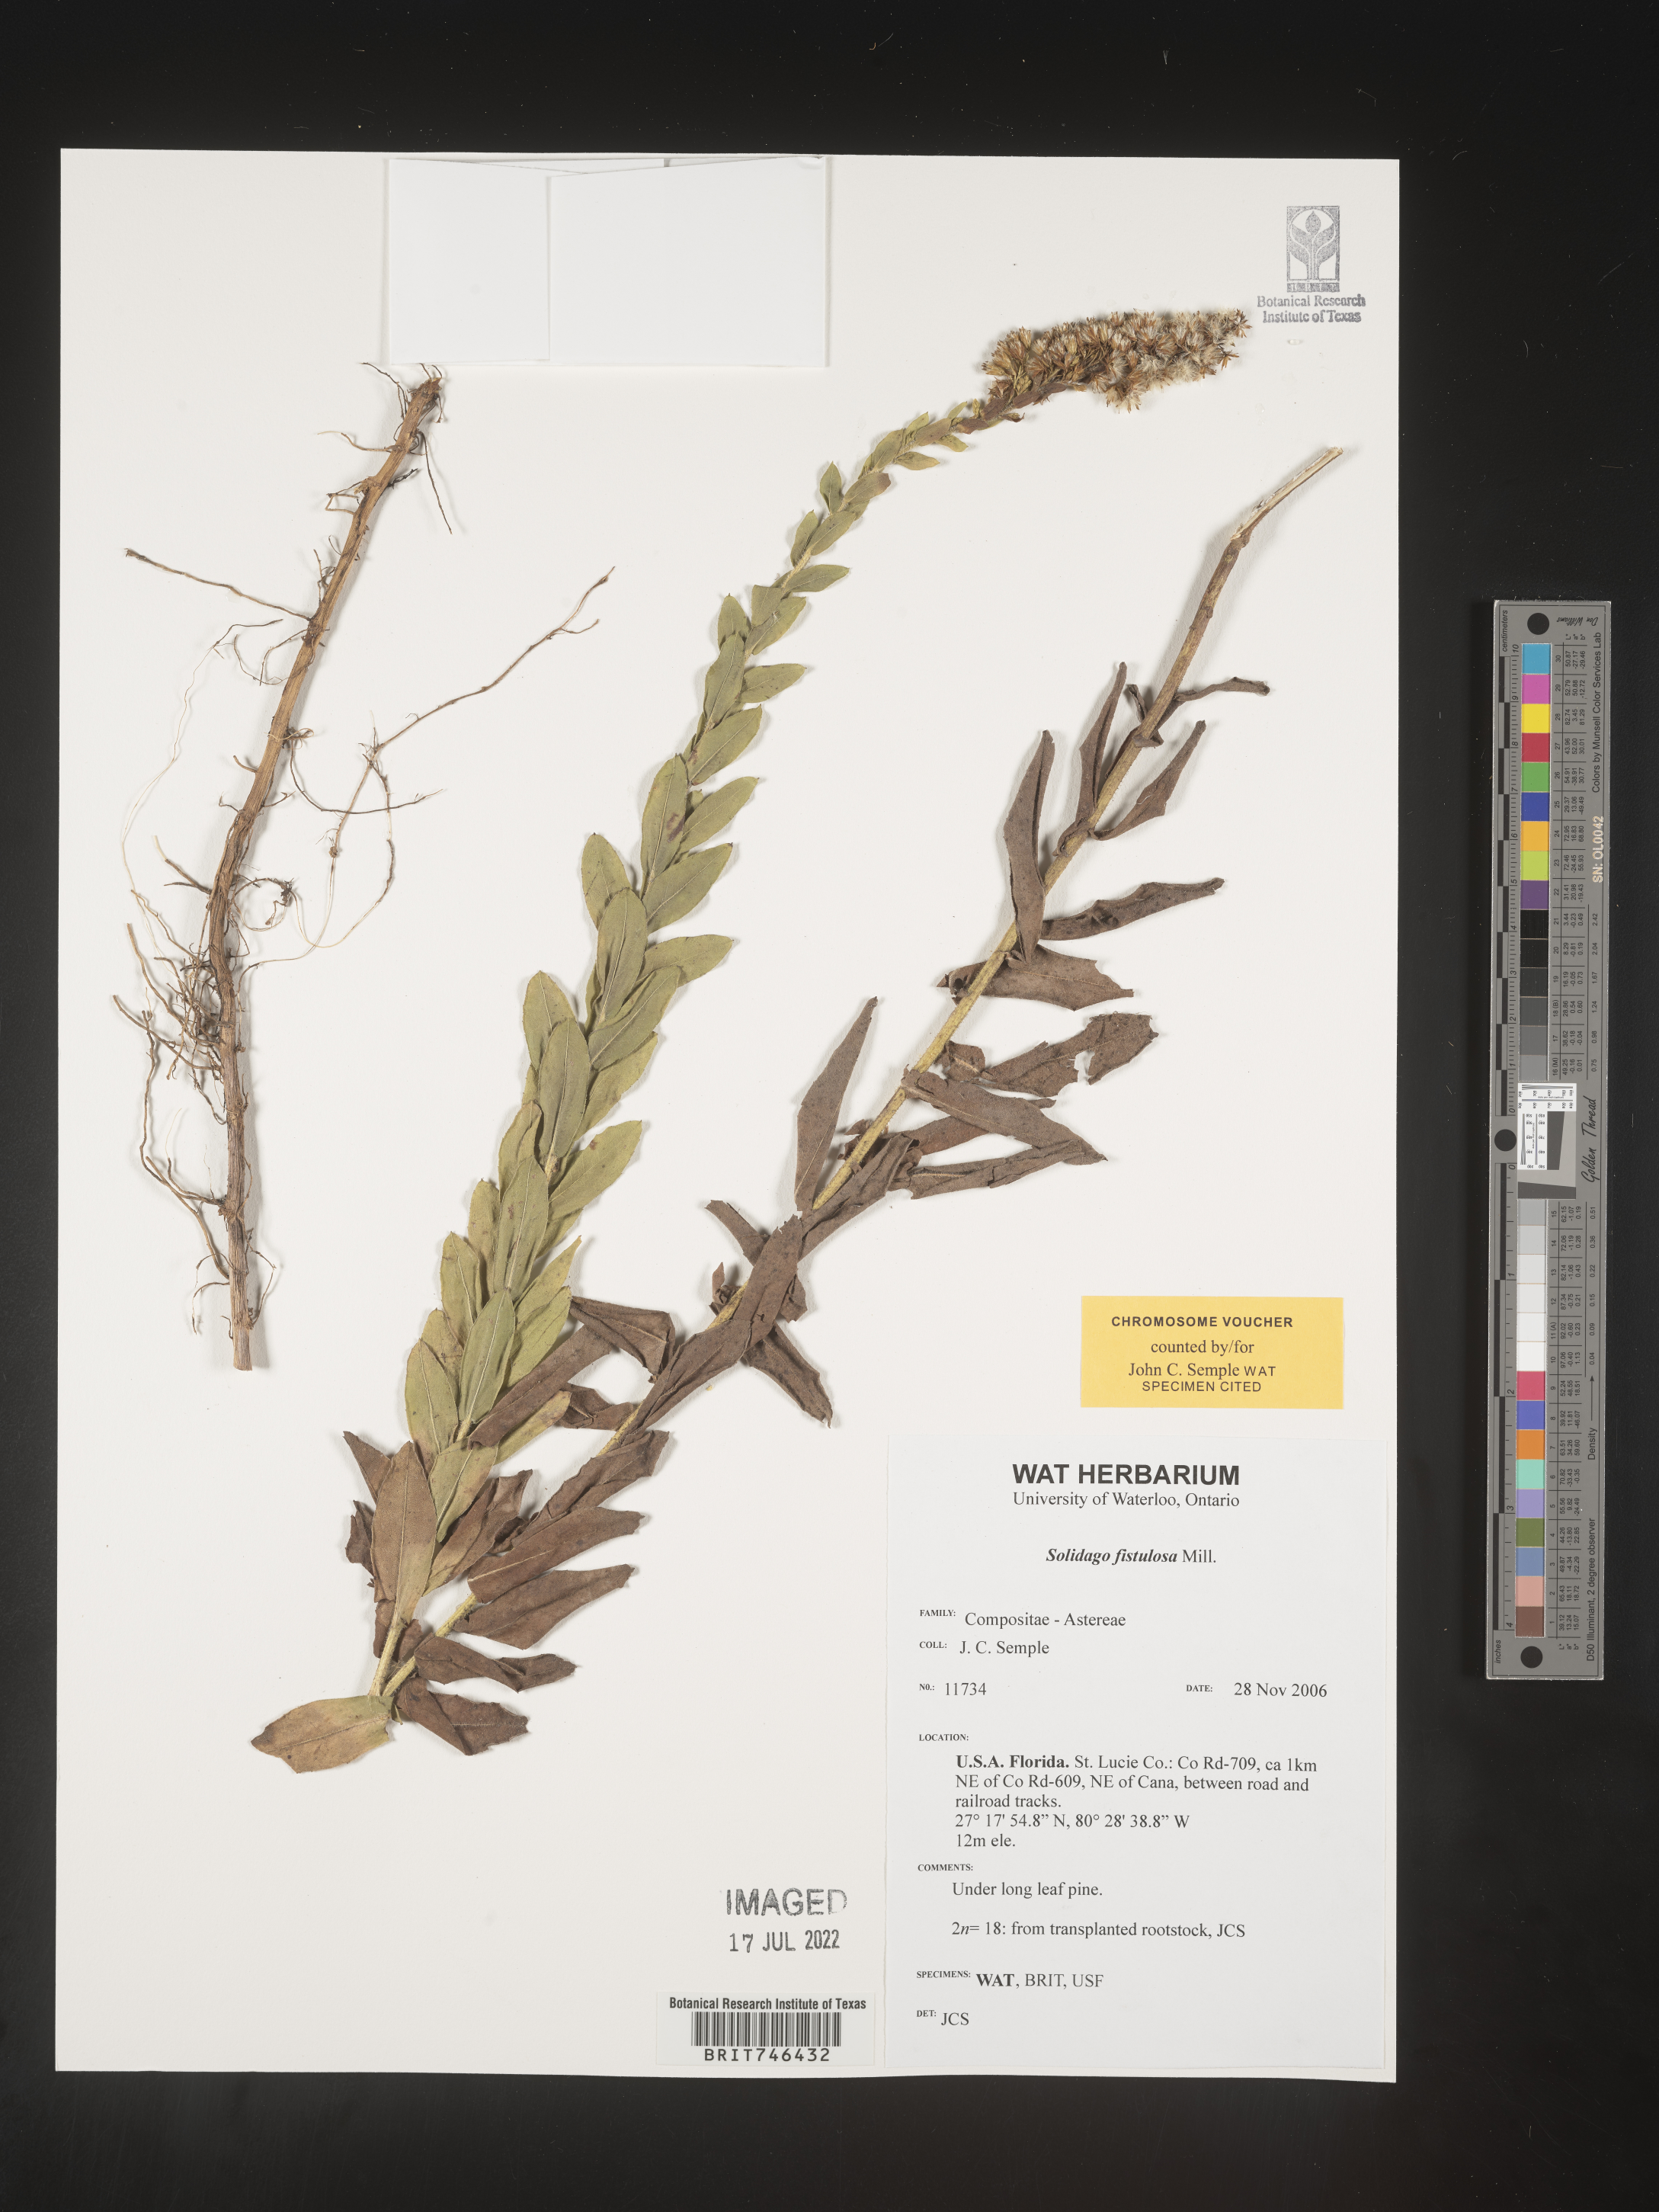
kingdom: Plantae
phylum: Tracheophyta
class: Magnoliopsida
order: Asterales
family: Asteraceae
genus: Solidago
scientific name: Solidago fistulosa
